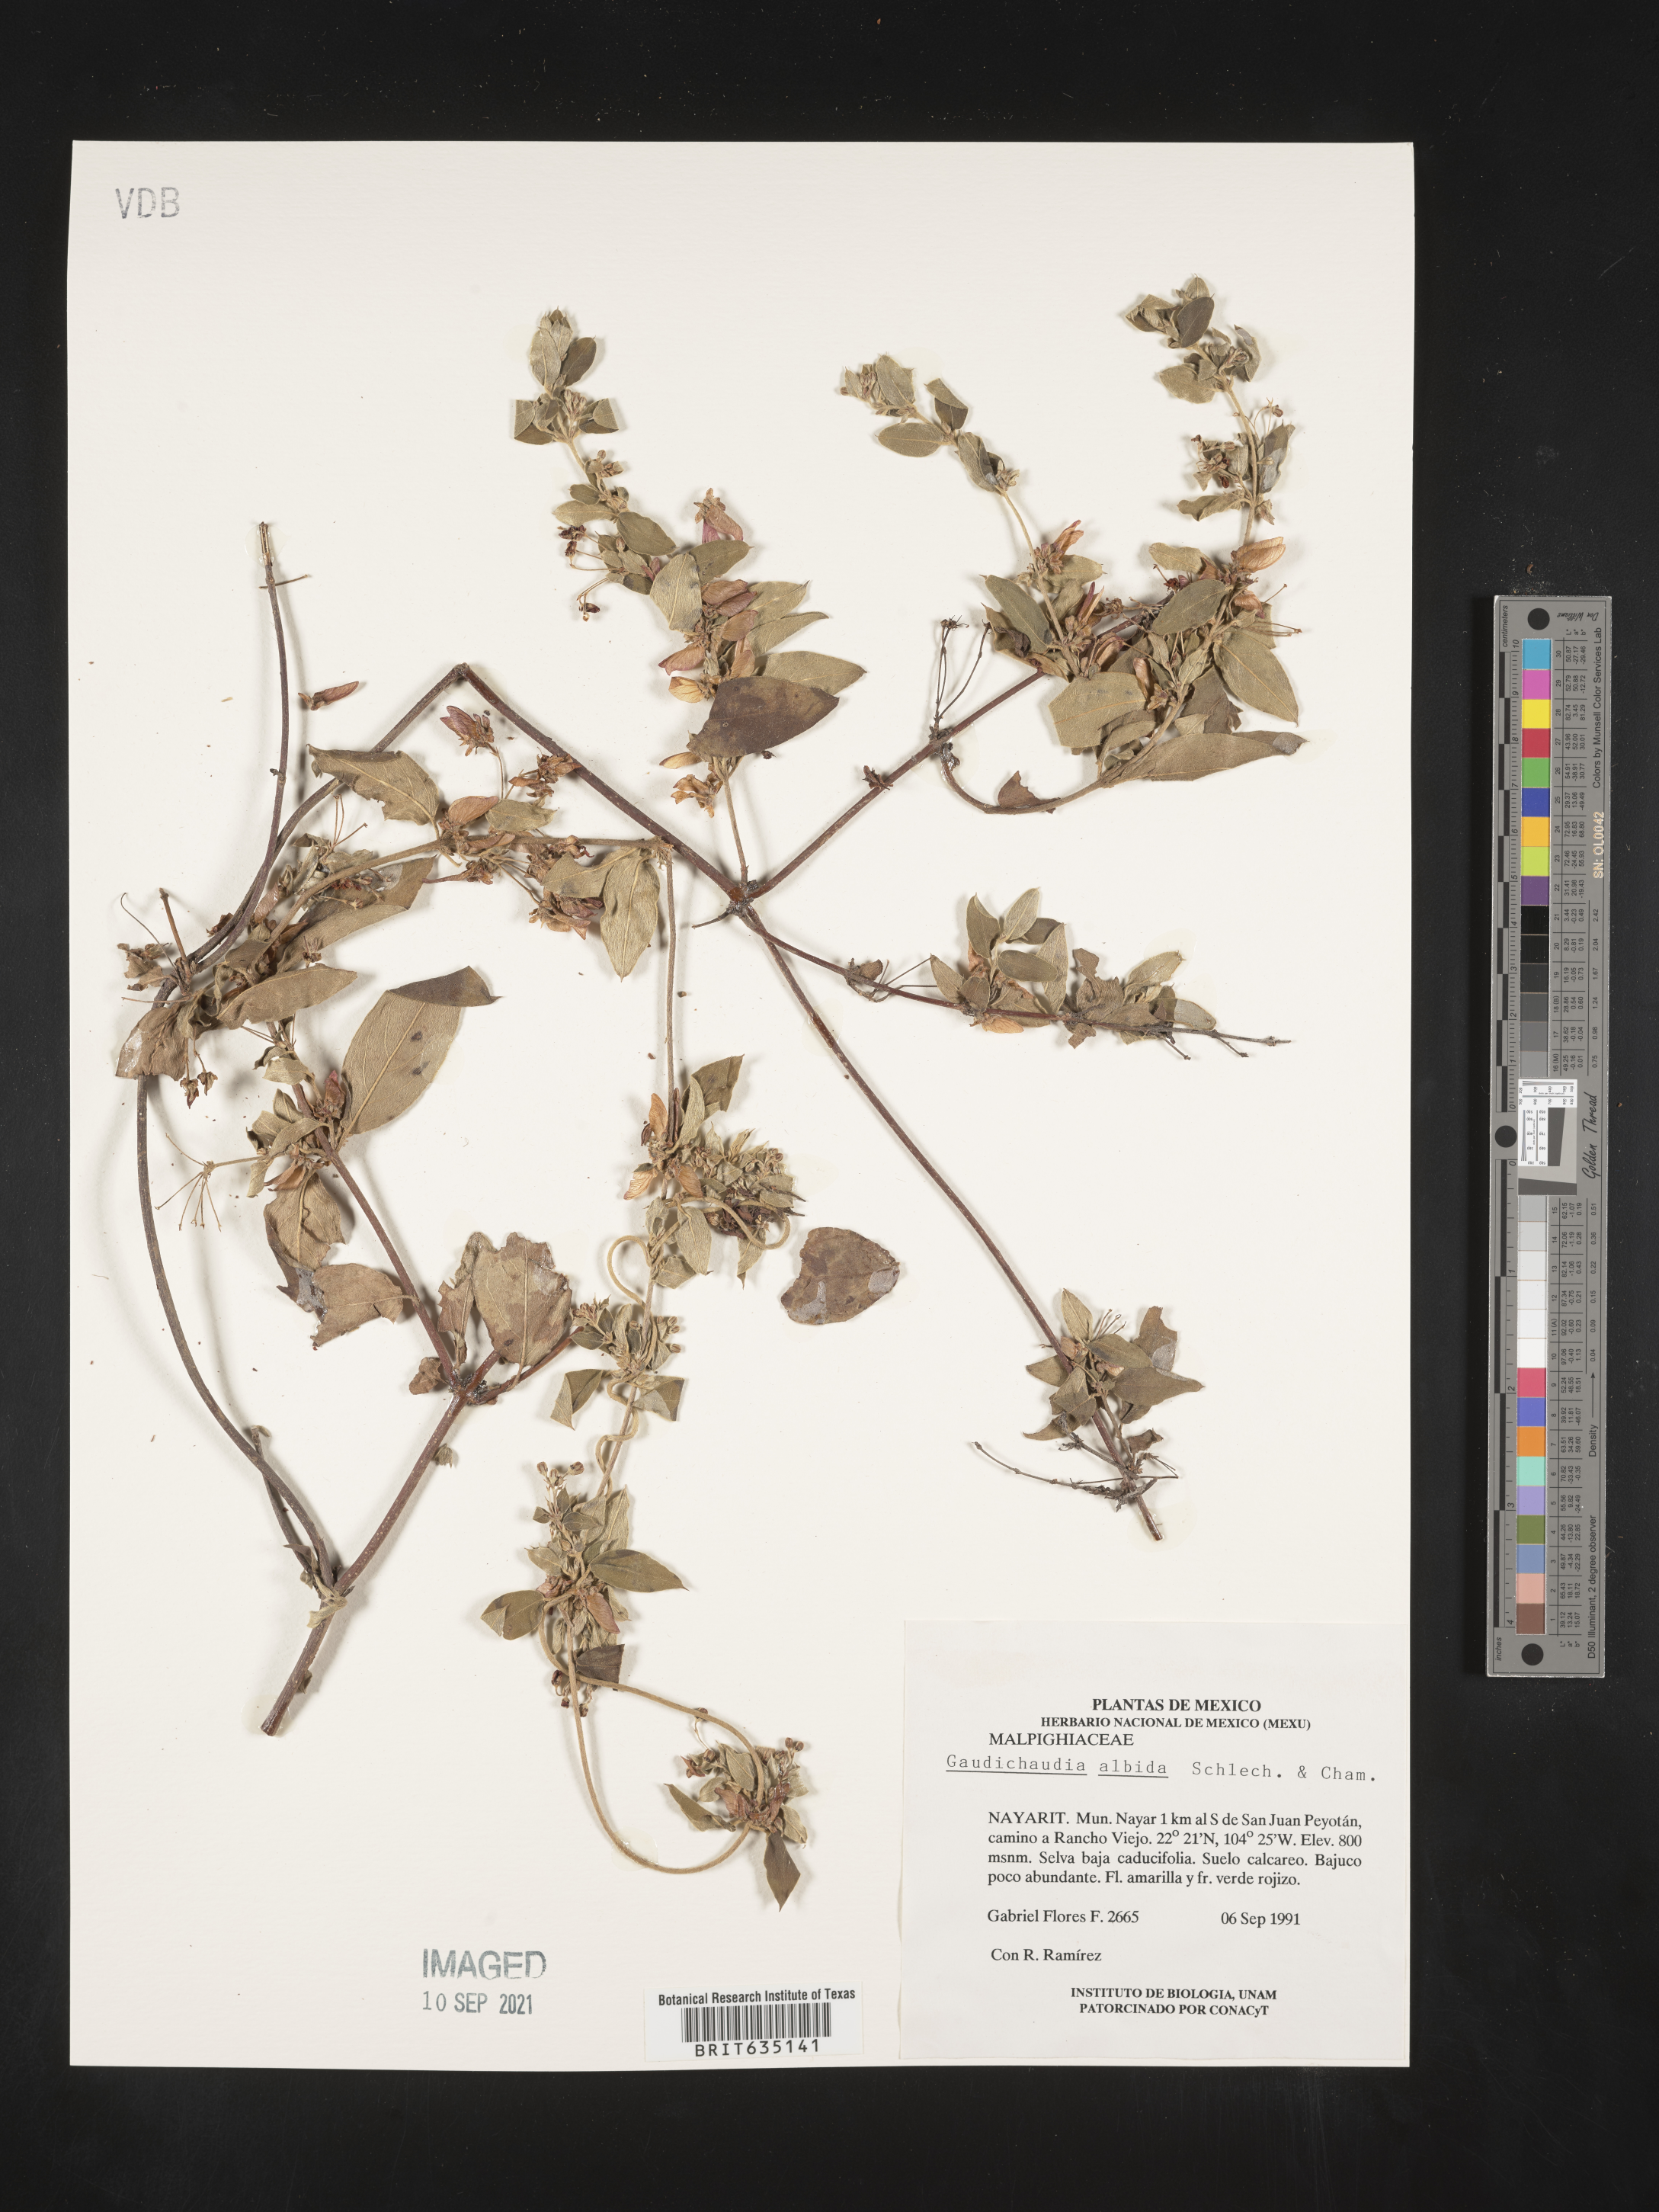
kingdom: Plantae
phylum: Tracheophyta
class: Magnoliopsida
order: Malpighiales
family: Malpighiaceae
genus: Gaudichaudia
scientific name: Gaudichaudia
